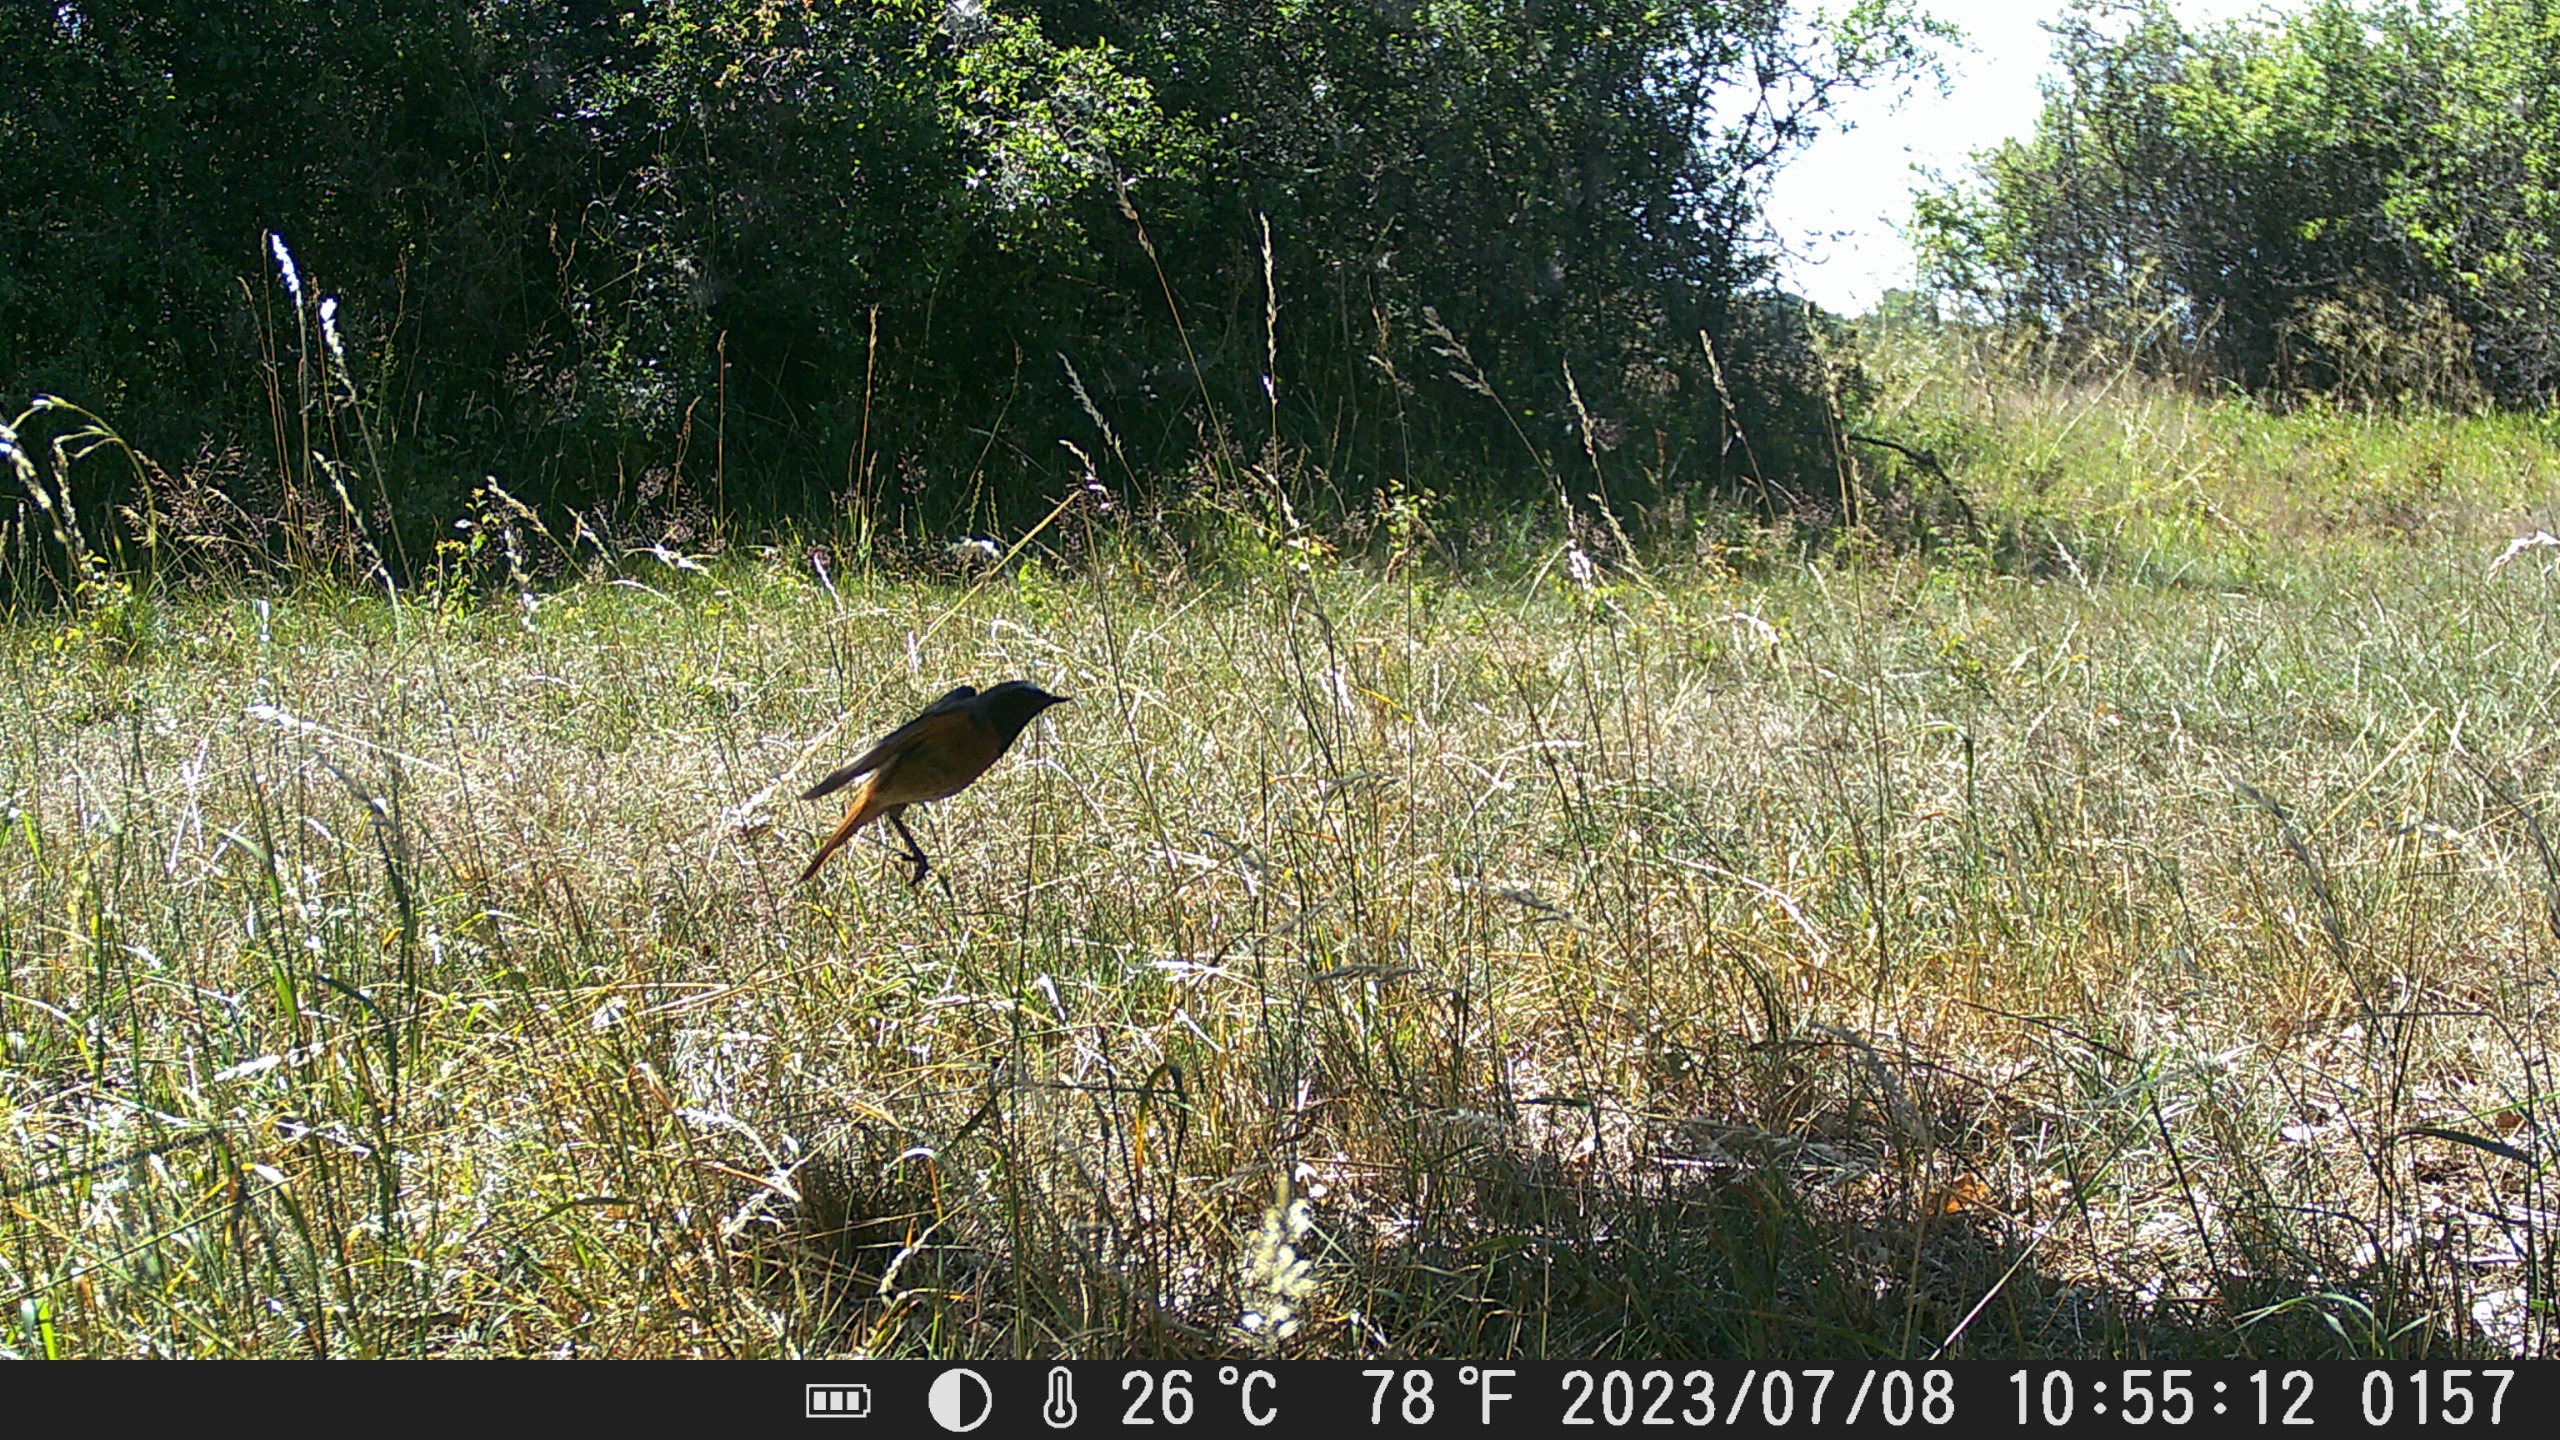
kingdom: Animalia
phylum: Chordata
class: Aves
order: Passeriformes
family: Muscicapidae
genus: Phoenicurus
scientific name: Phoenicurus phoenicurus
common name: Rødstjert
